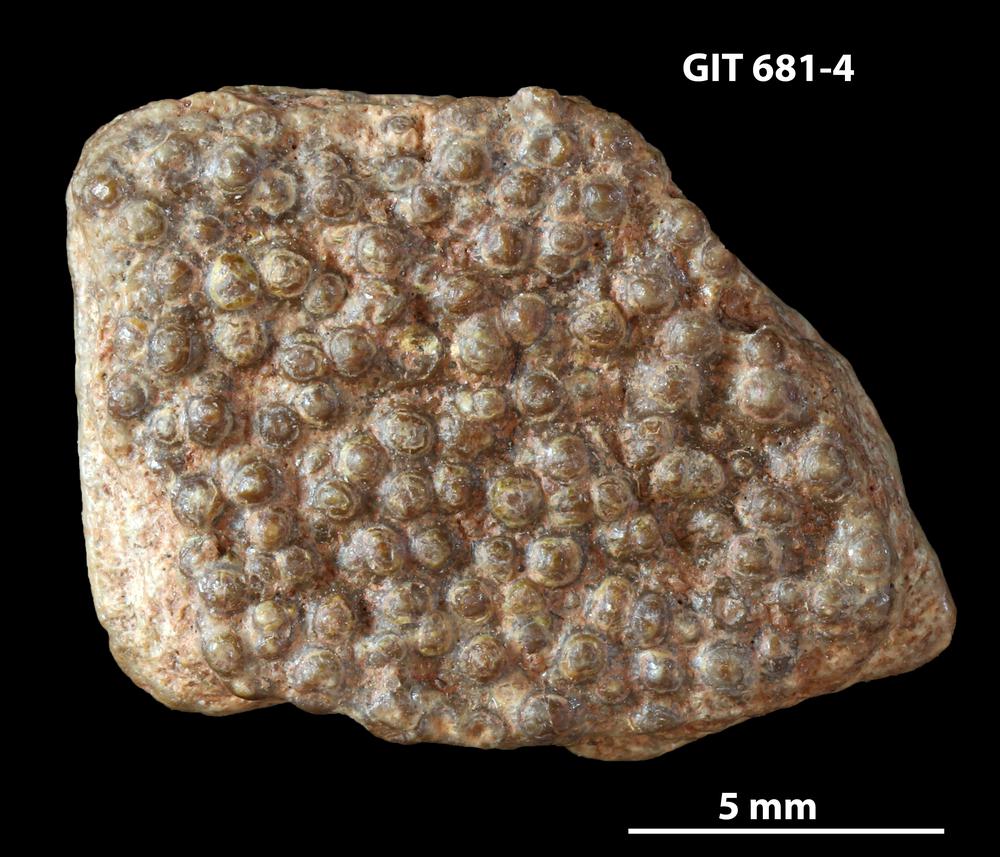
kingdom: Animalia
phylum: Chordata
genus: Hybosteus
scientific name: Hybosteus
